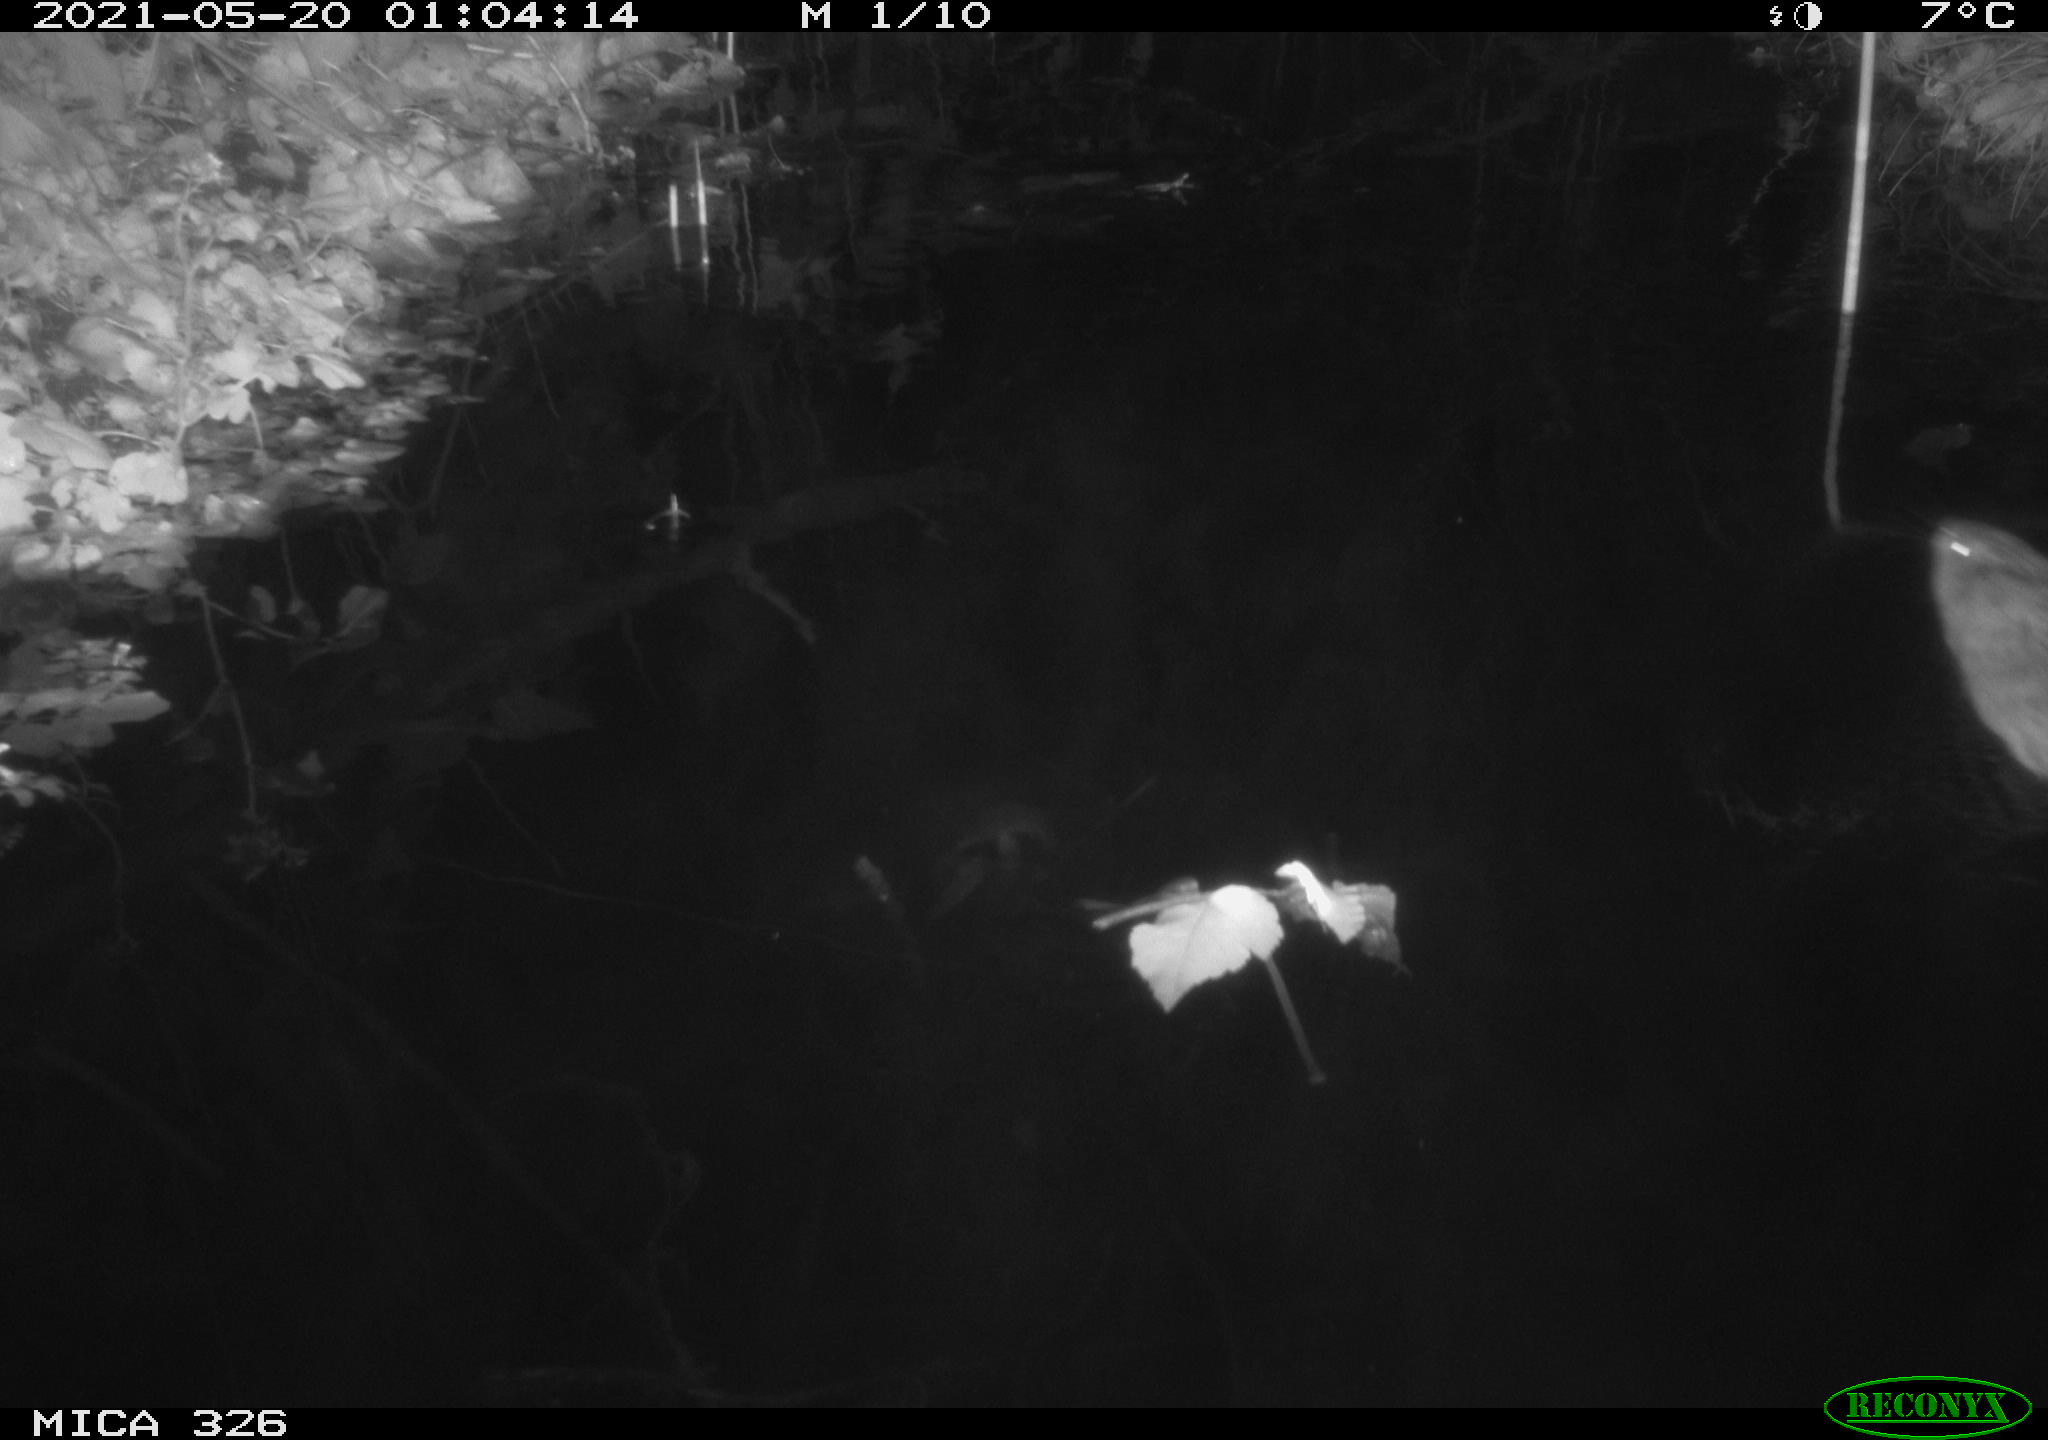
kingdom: Animalia
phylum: Chordata
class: Mammalia
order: Rodentia
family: Cricetidae
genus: Ondatra
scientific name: Ondatra zibethicus
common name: Muskrat
